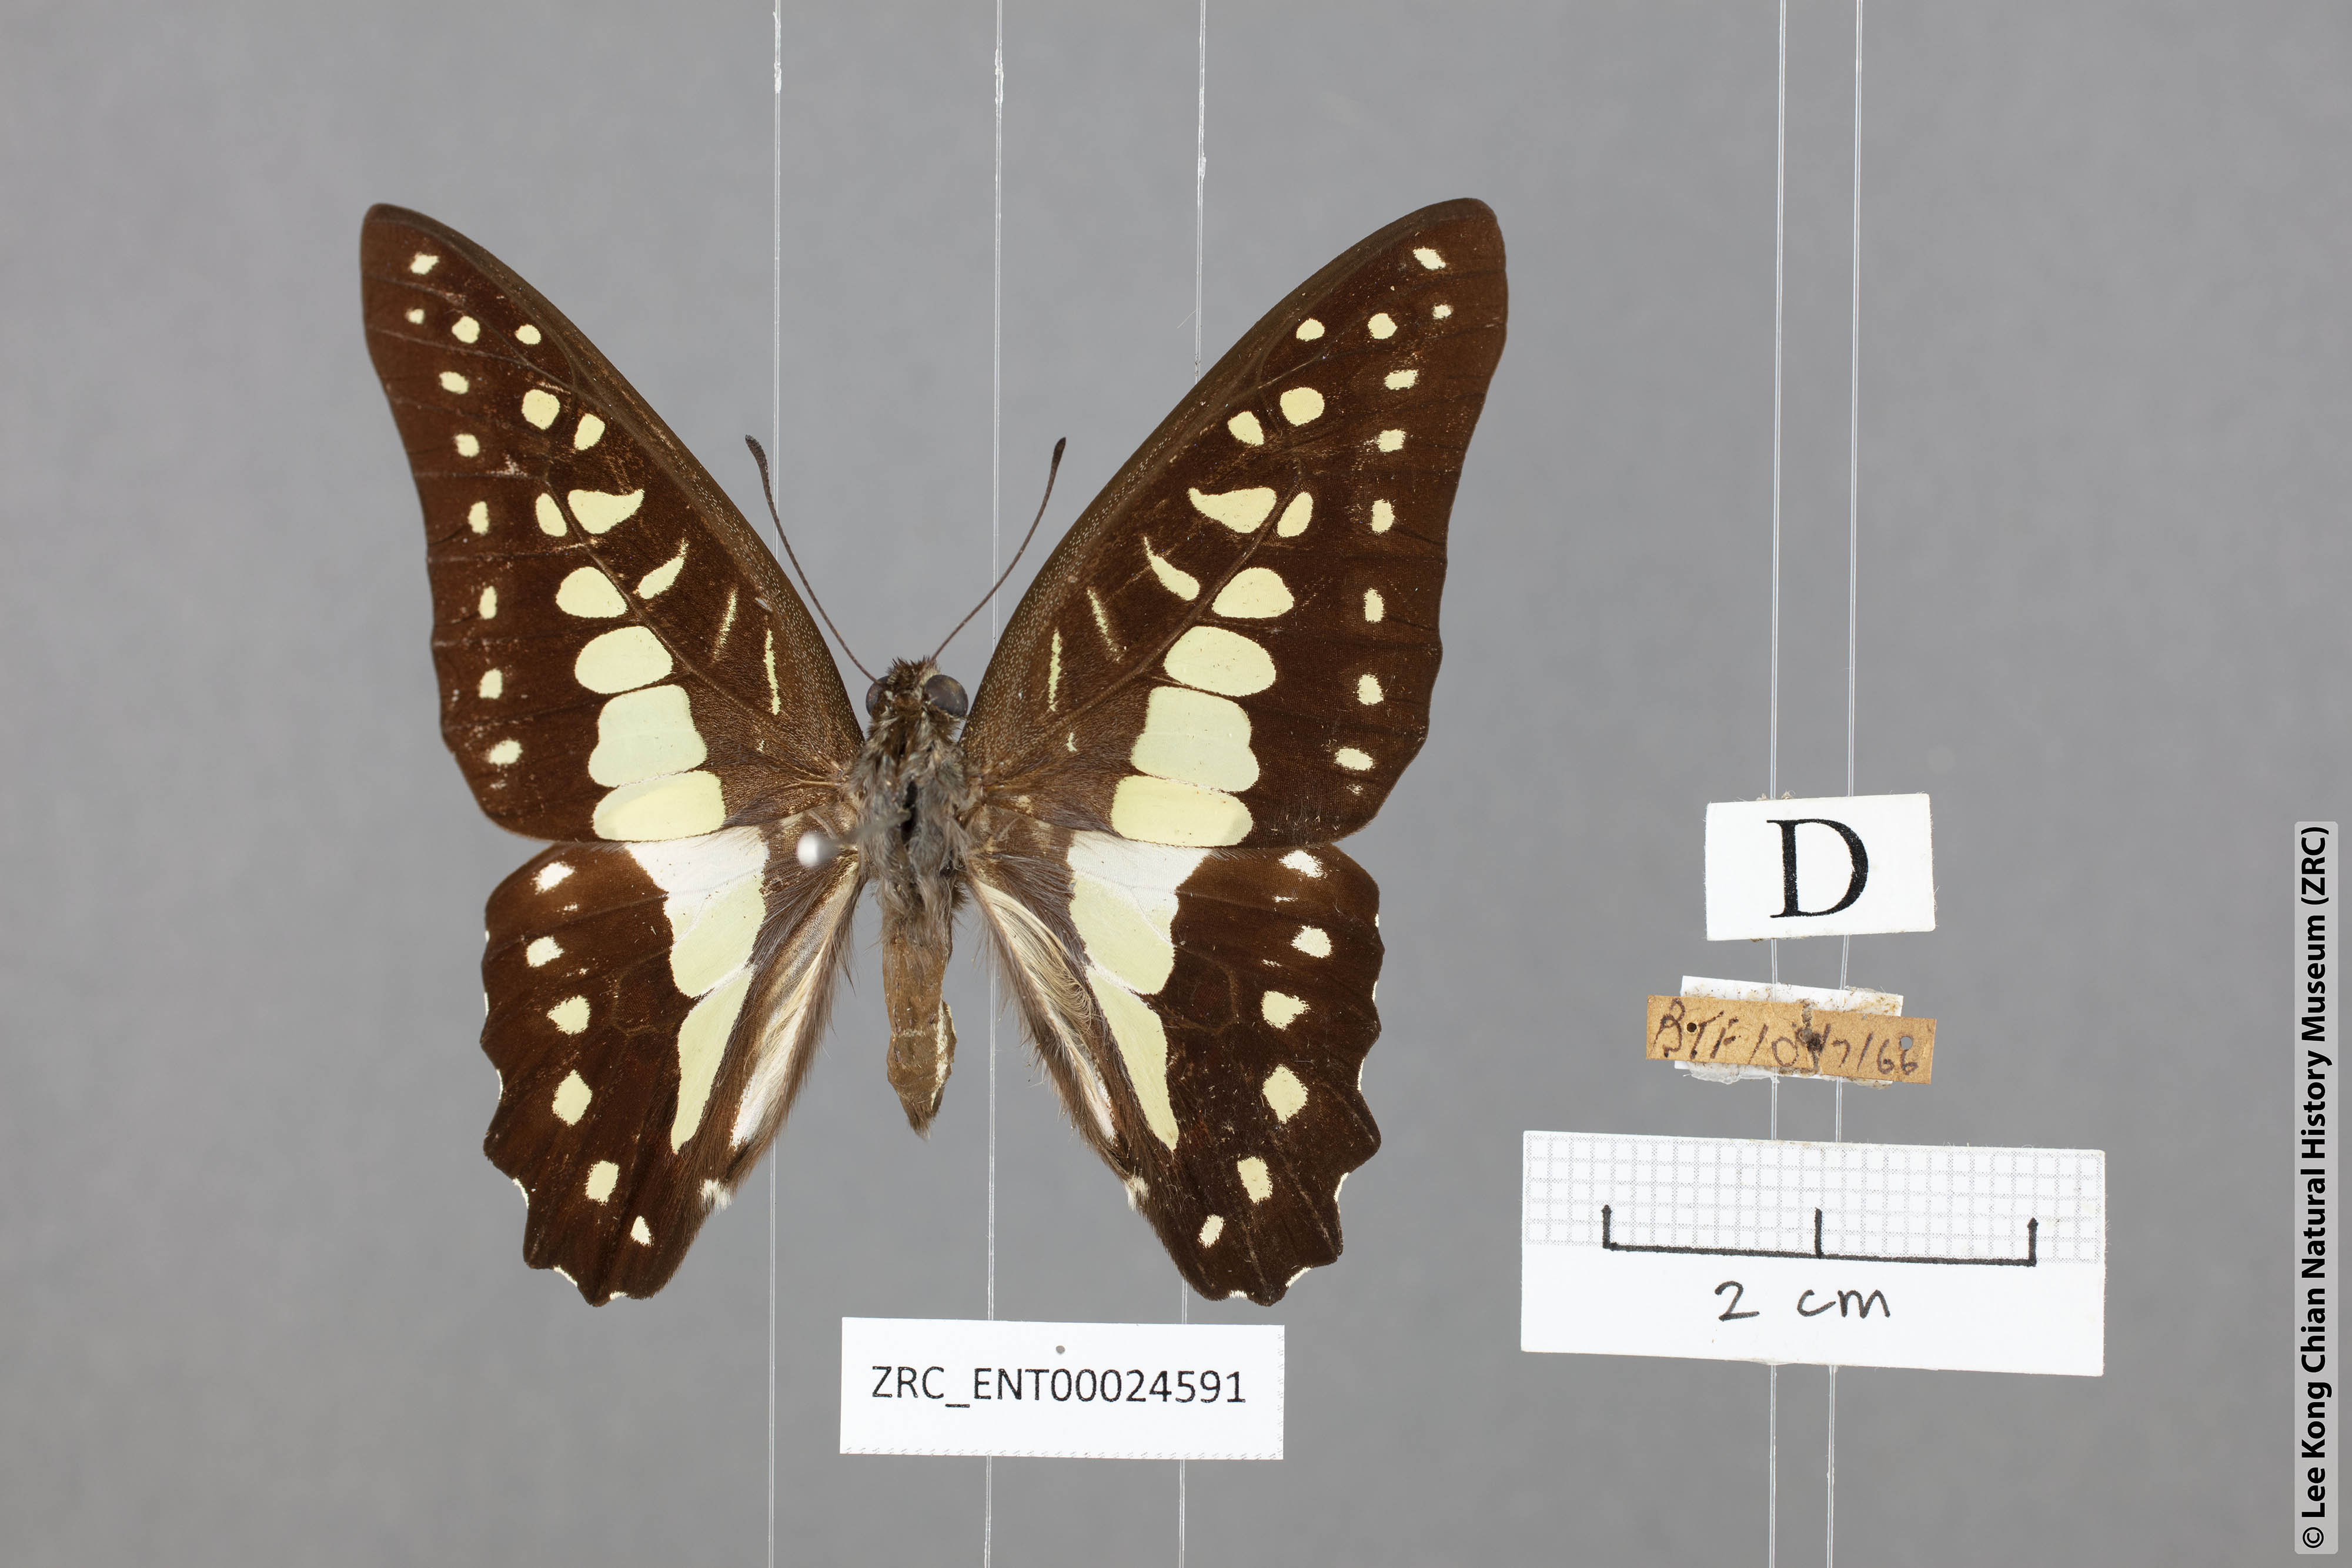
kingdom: Animalia
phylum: Arthropoda
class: Insecta
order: Lepidoptera
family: Papilionidae
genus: Graphium
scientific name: Graphium evemon
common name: Lesser jay
